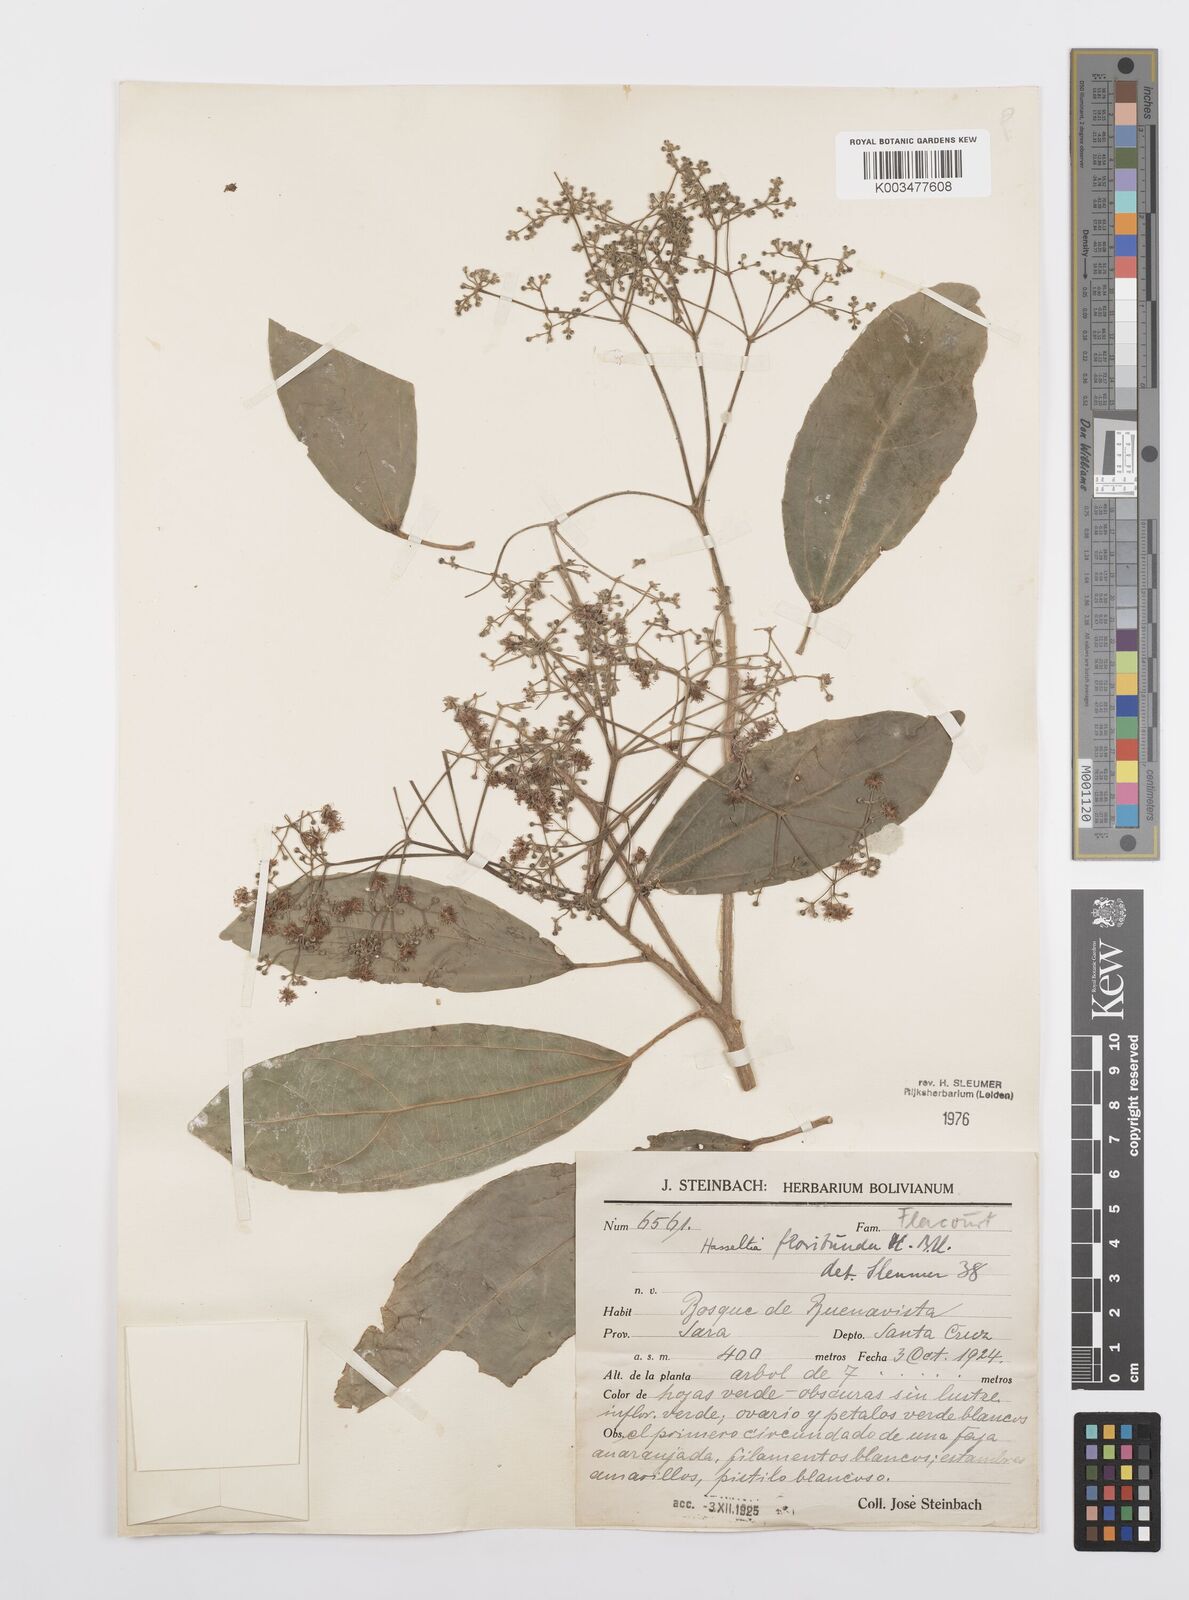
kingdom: Plantae
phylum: Tracheophyta
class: Magnoliopsida
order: Malpighiales
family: Salicaceae
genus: Hasseltia
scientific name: Hasseltia floribunda
